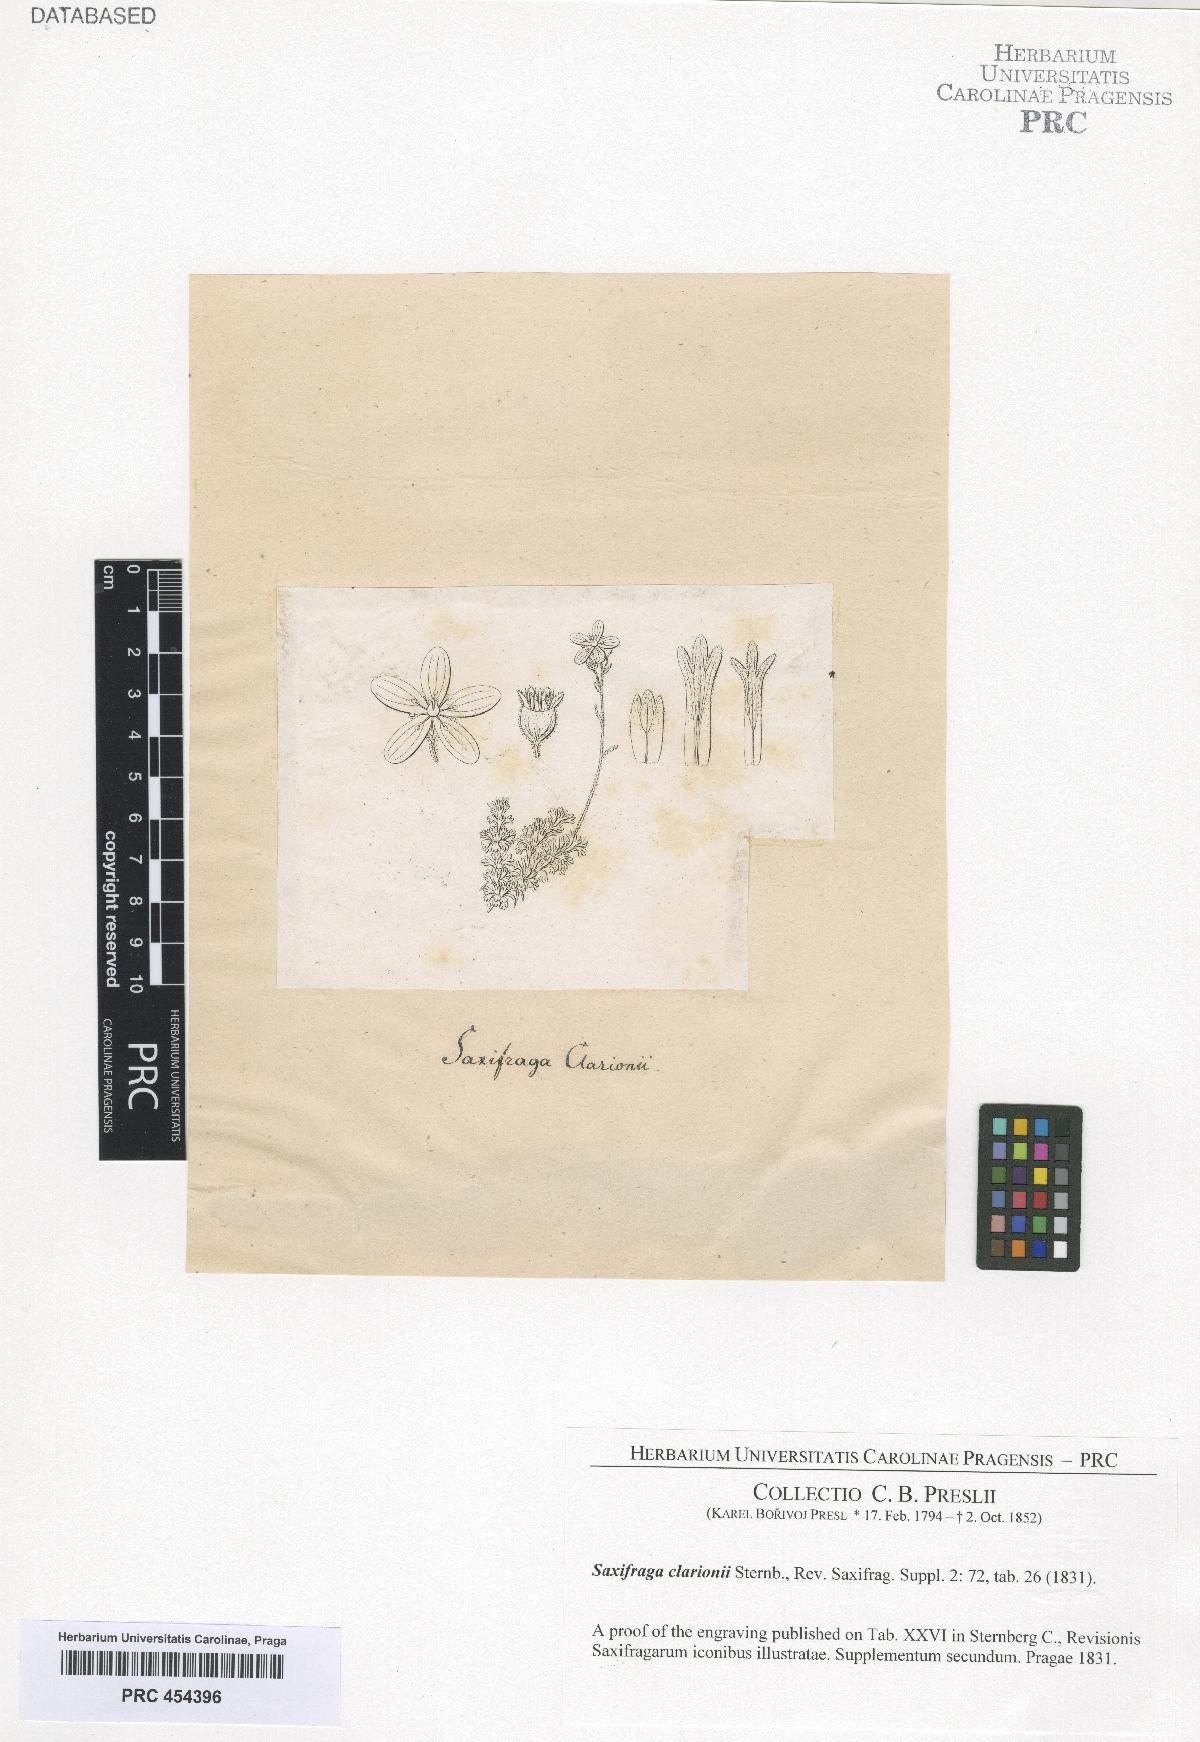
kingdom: Plantae
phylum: Tracheophyta
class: Magnoliopsida
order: Saxifragales
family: Saxifragaceae
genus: Saxifraga
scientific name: Saxifraga exarata
